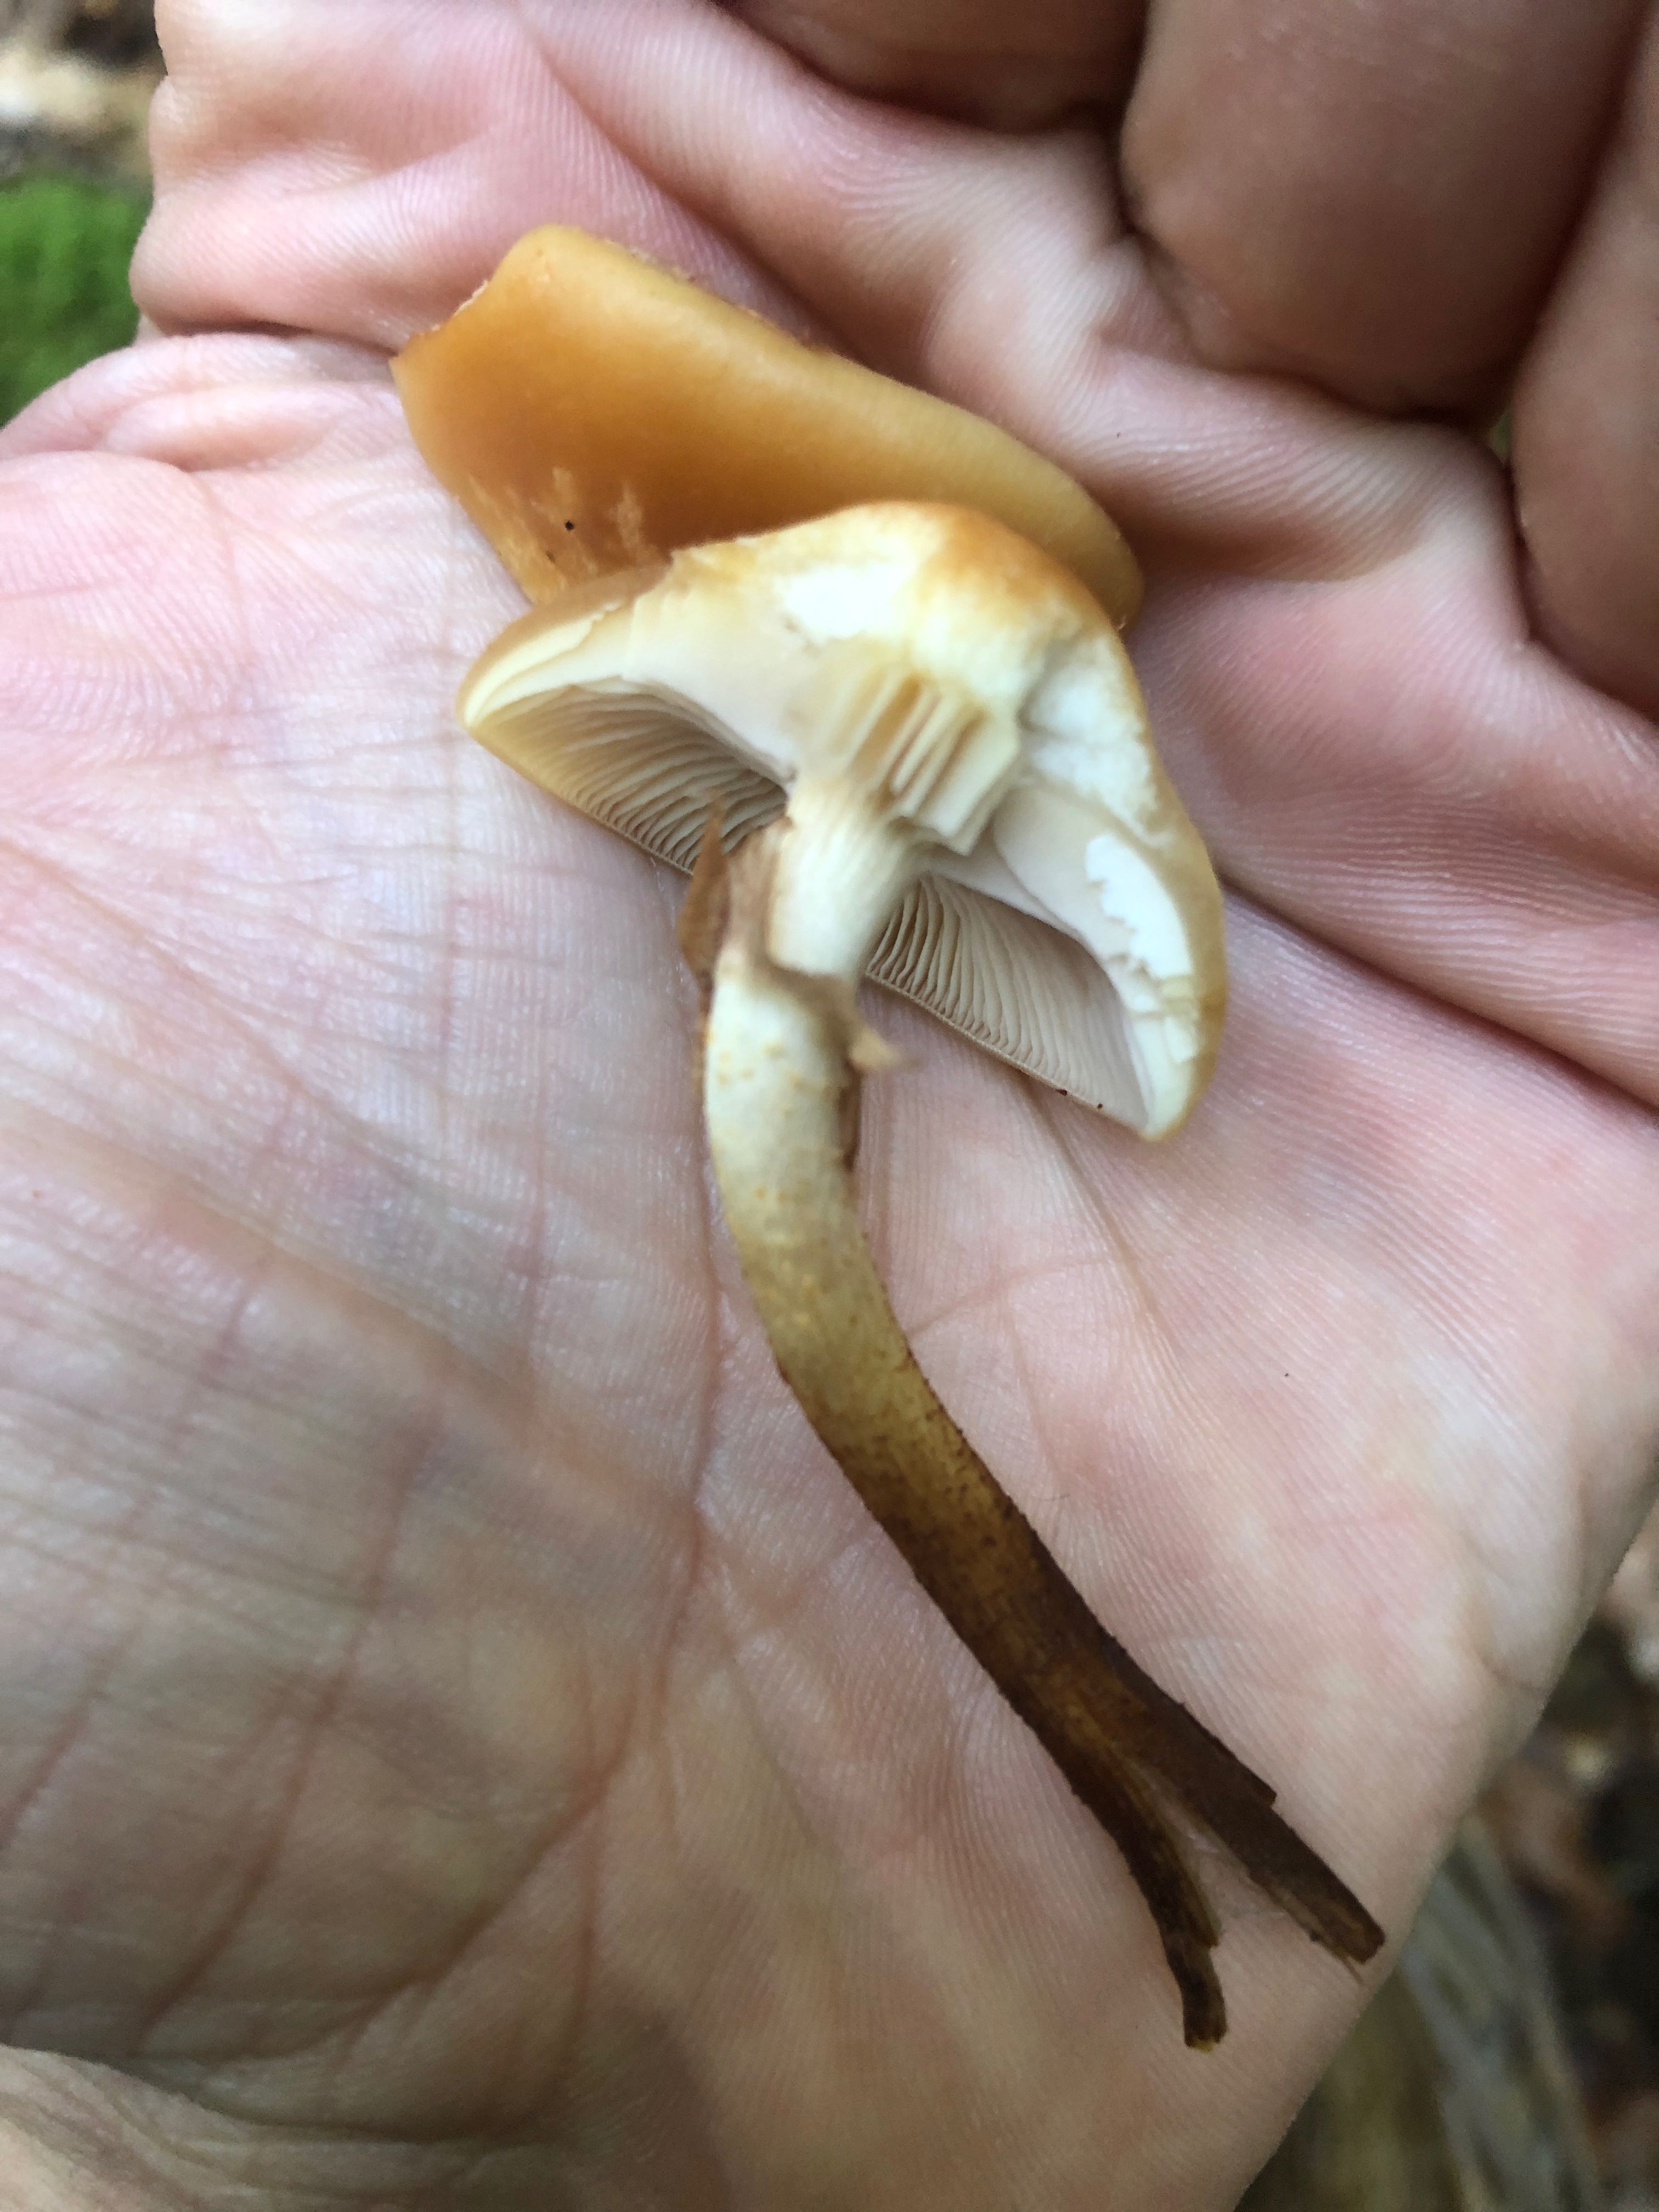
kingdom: Fungi
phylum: Basidiomycota
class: Agaricomycetes
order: Agaricales
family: Strophariaceae
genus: Kuehneromyces
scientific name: Kuehneromyces mutabilis
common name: foranderlig skælhat
